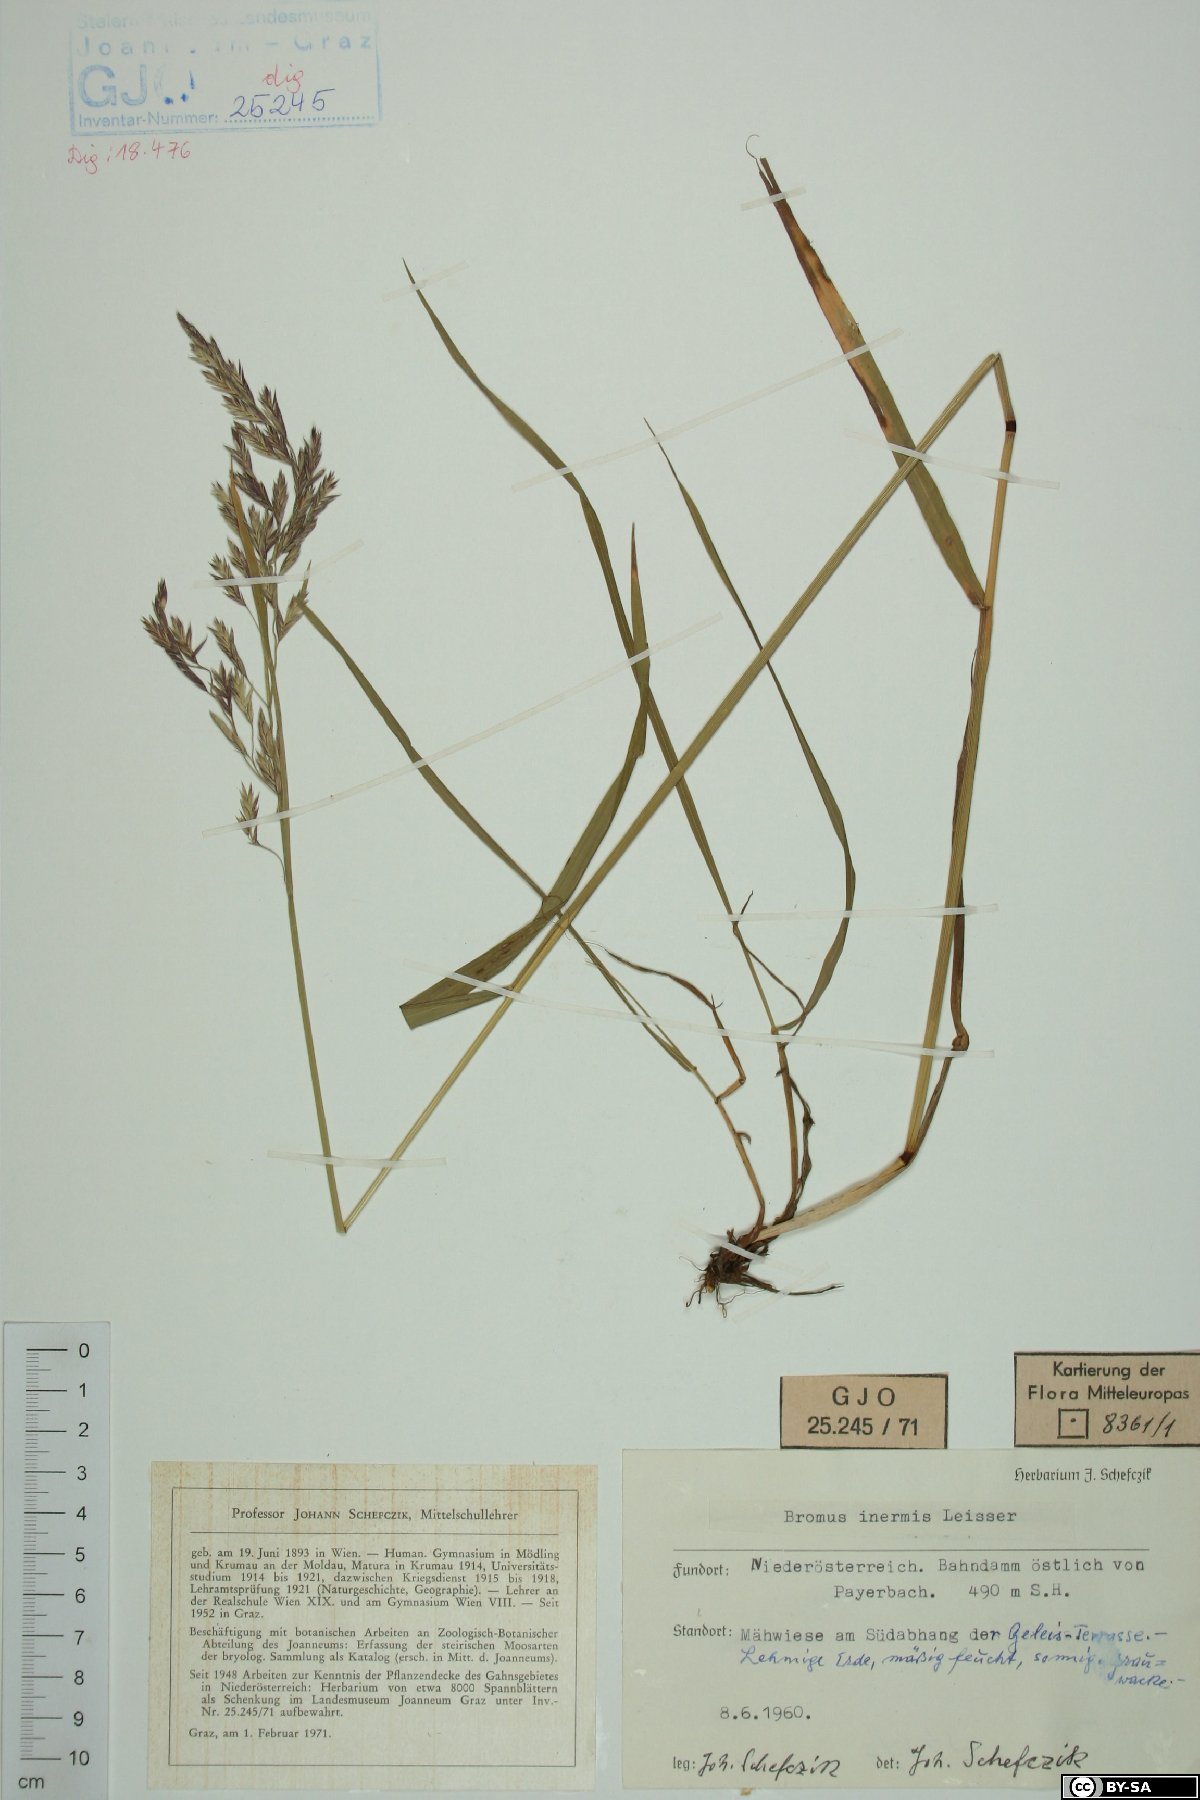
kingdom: Plantae
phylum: Tracheophyta
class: Liliopsida
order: Poales
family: Poaceae
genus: Bromus
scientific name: Bromus inermis
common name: Smooth brome
